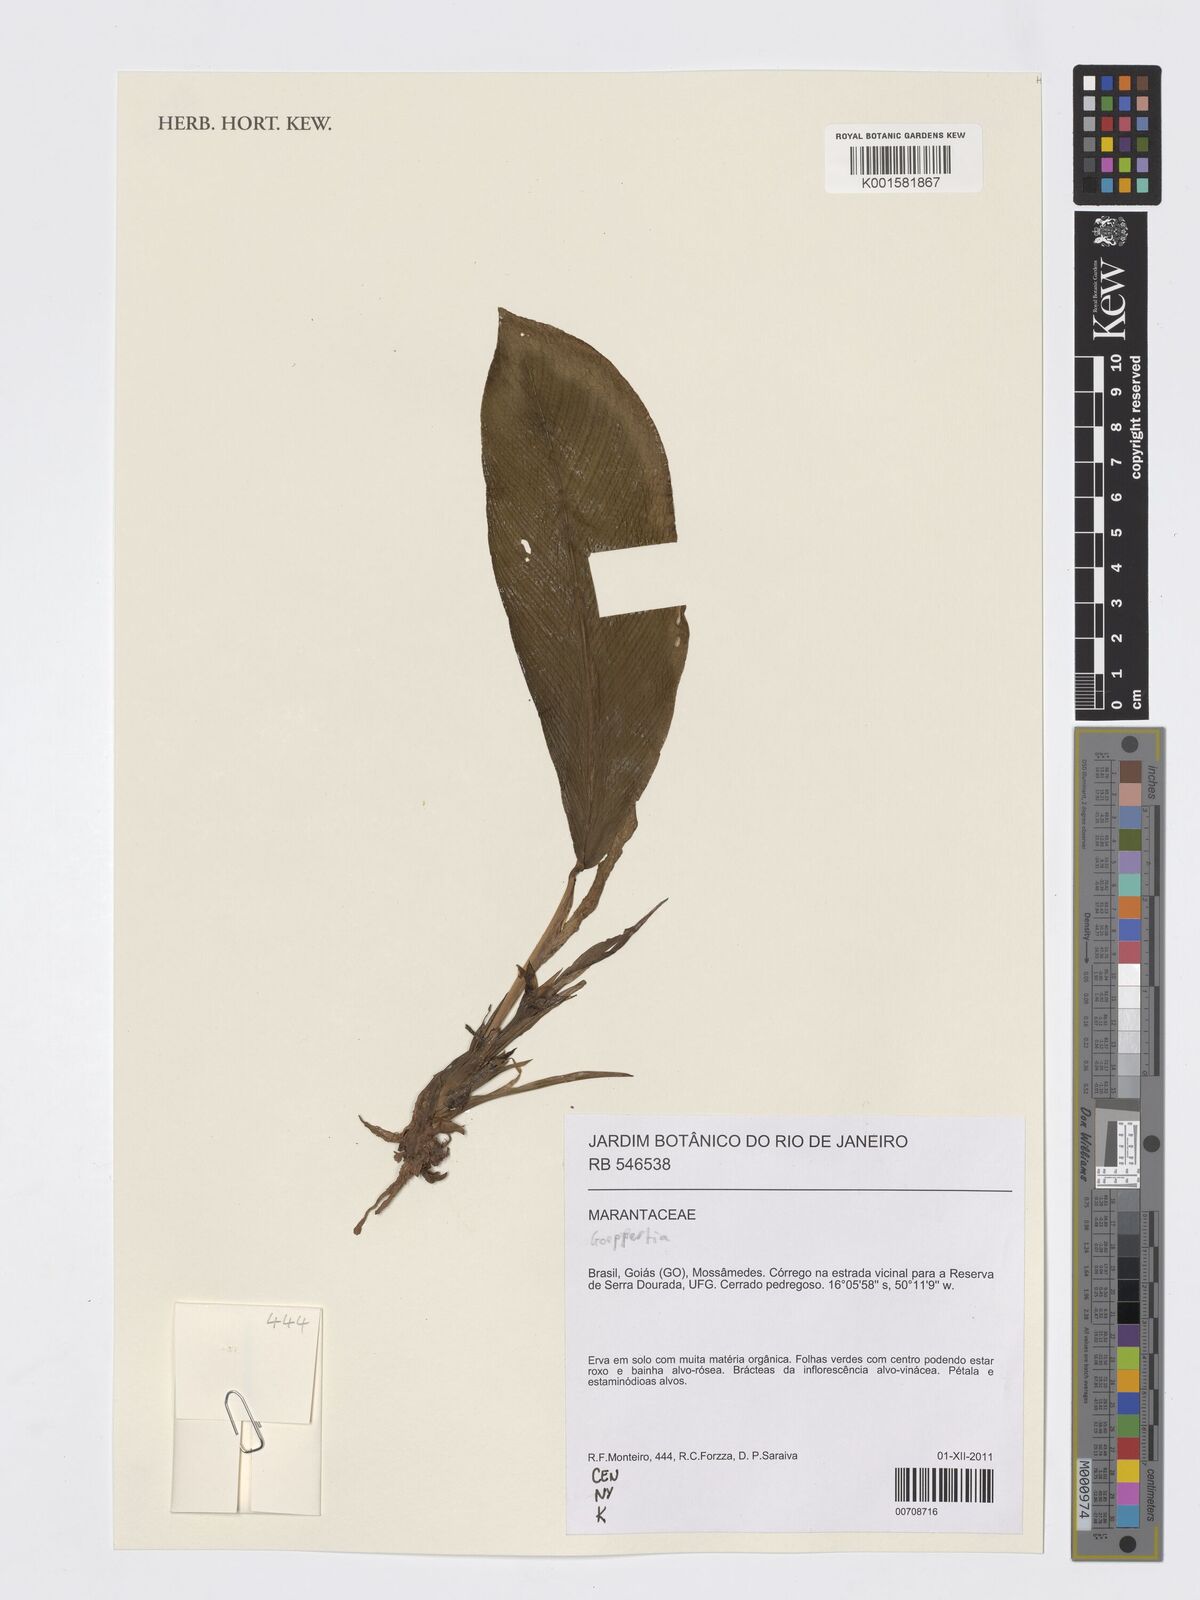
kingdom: Plantae
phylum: Tracheophyta
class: Liliopsida
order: Zingiberales
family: Marantaceae
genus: Goeppertia
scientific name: Goeppertia
